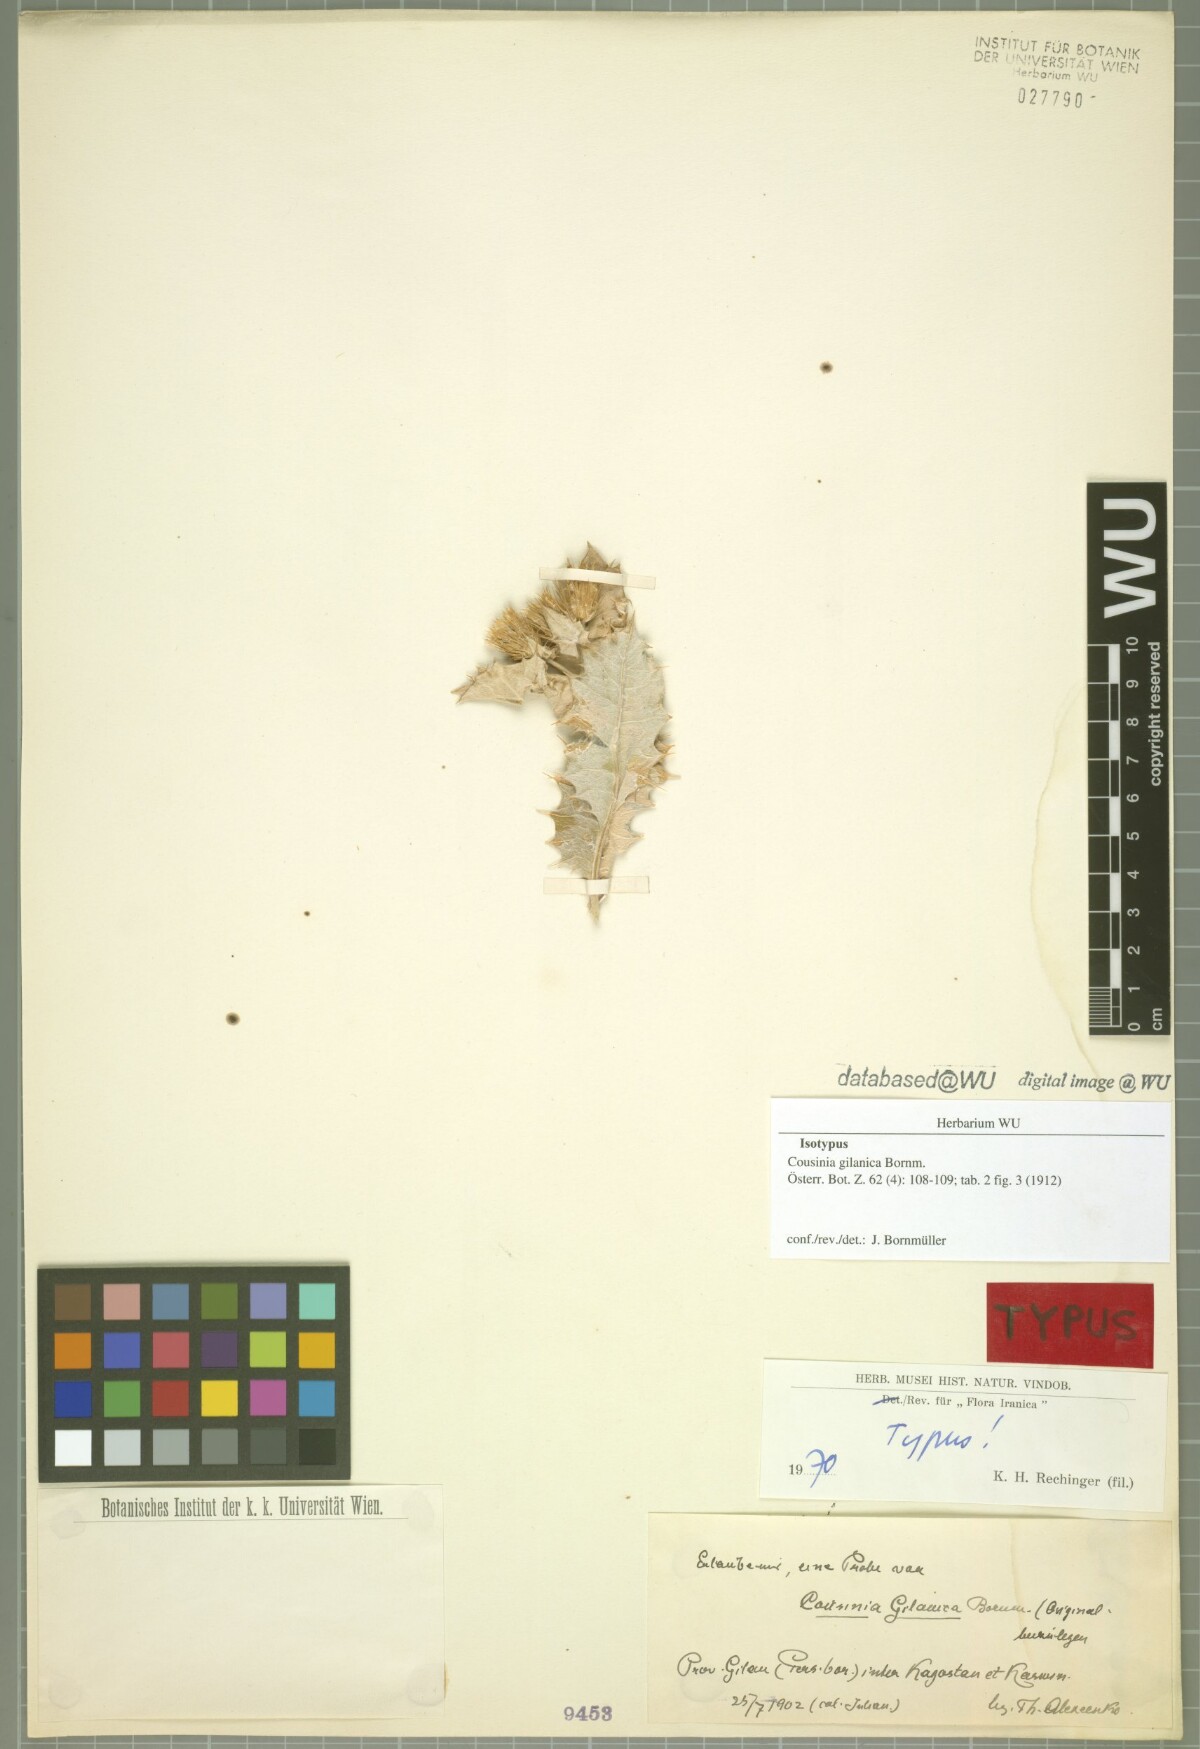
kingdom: Plantae
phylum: Tracheophyta
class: Magnoliopsida
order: Asterales
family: Asteraceae
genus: Cousinia
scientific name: Cousinia gilanica
